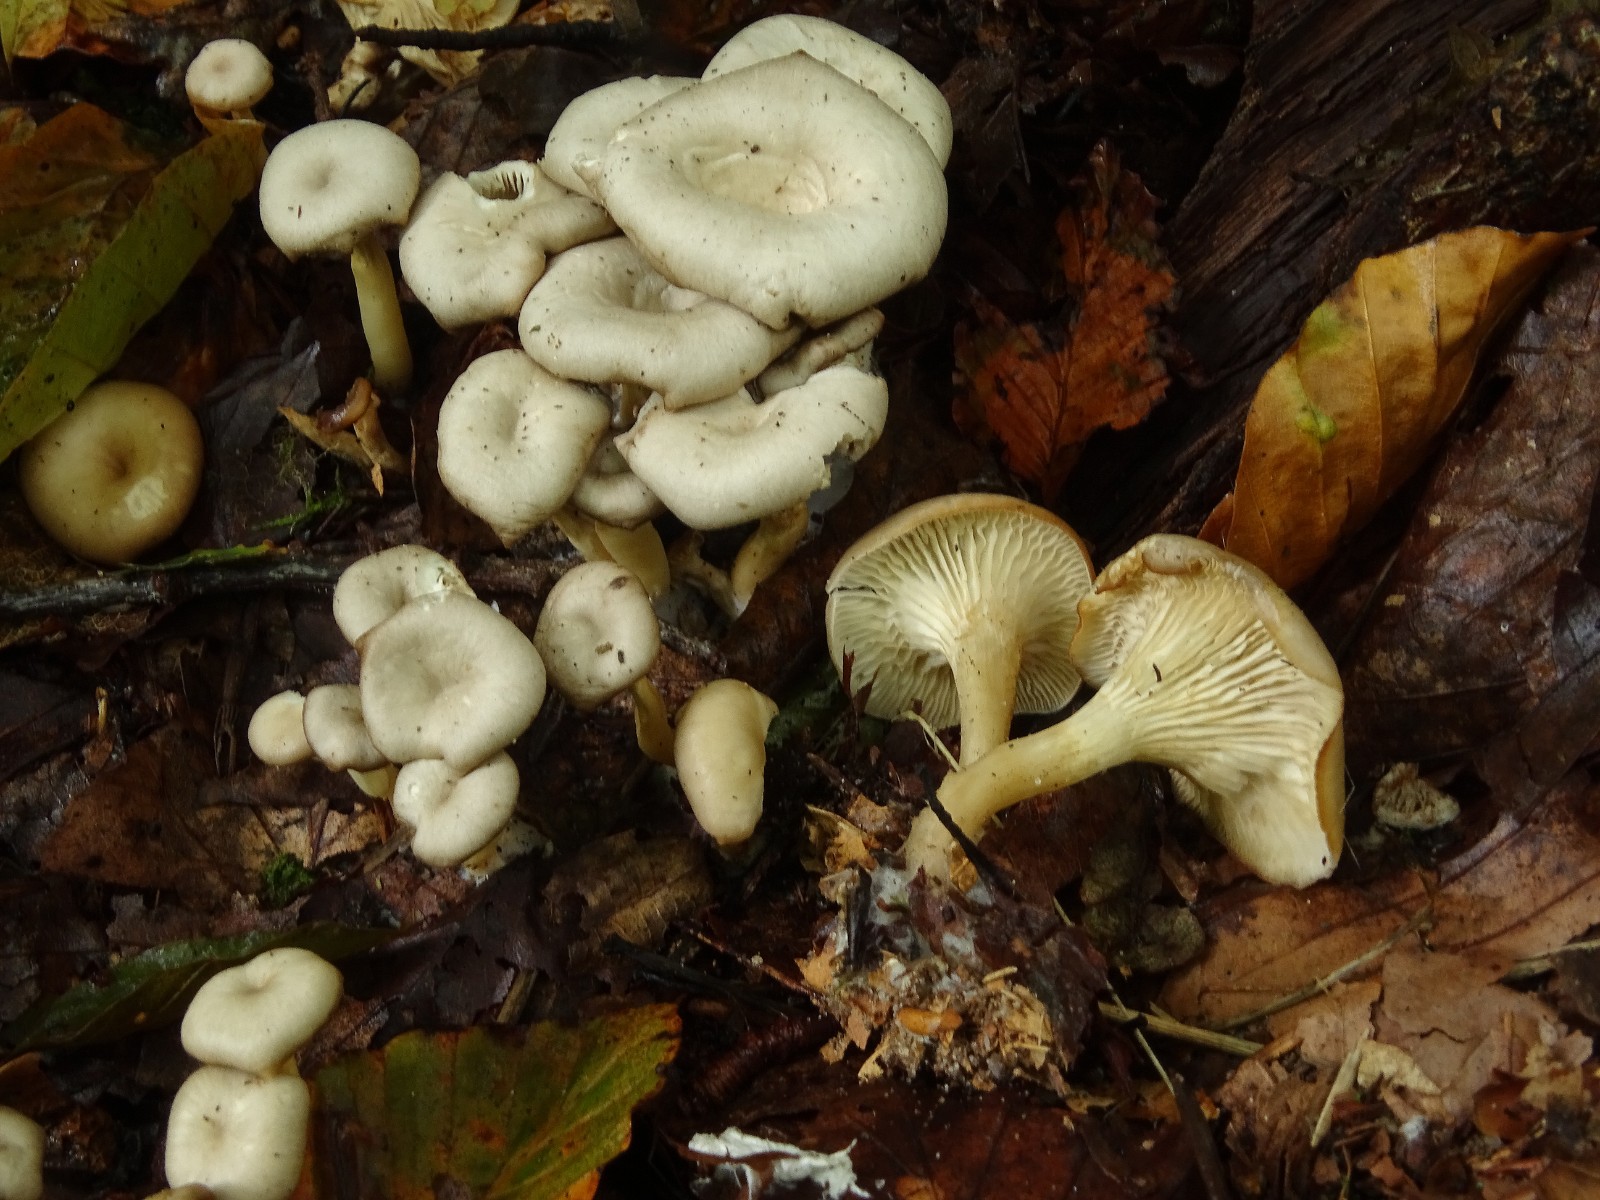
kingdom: Fungi
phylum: Basidiomycota
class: Agaricomycetes
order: Agaricales
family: Tricholomataceae
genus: Clitocybe
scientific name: Clitocybe phaeophthalma
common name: stinkende tragthat
